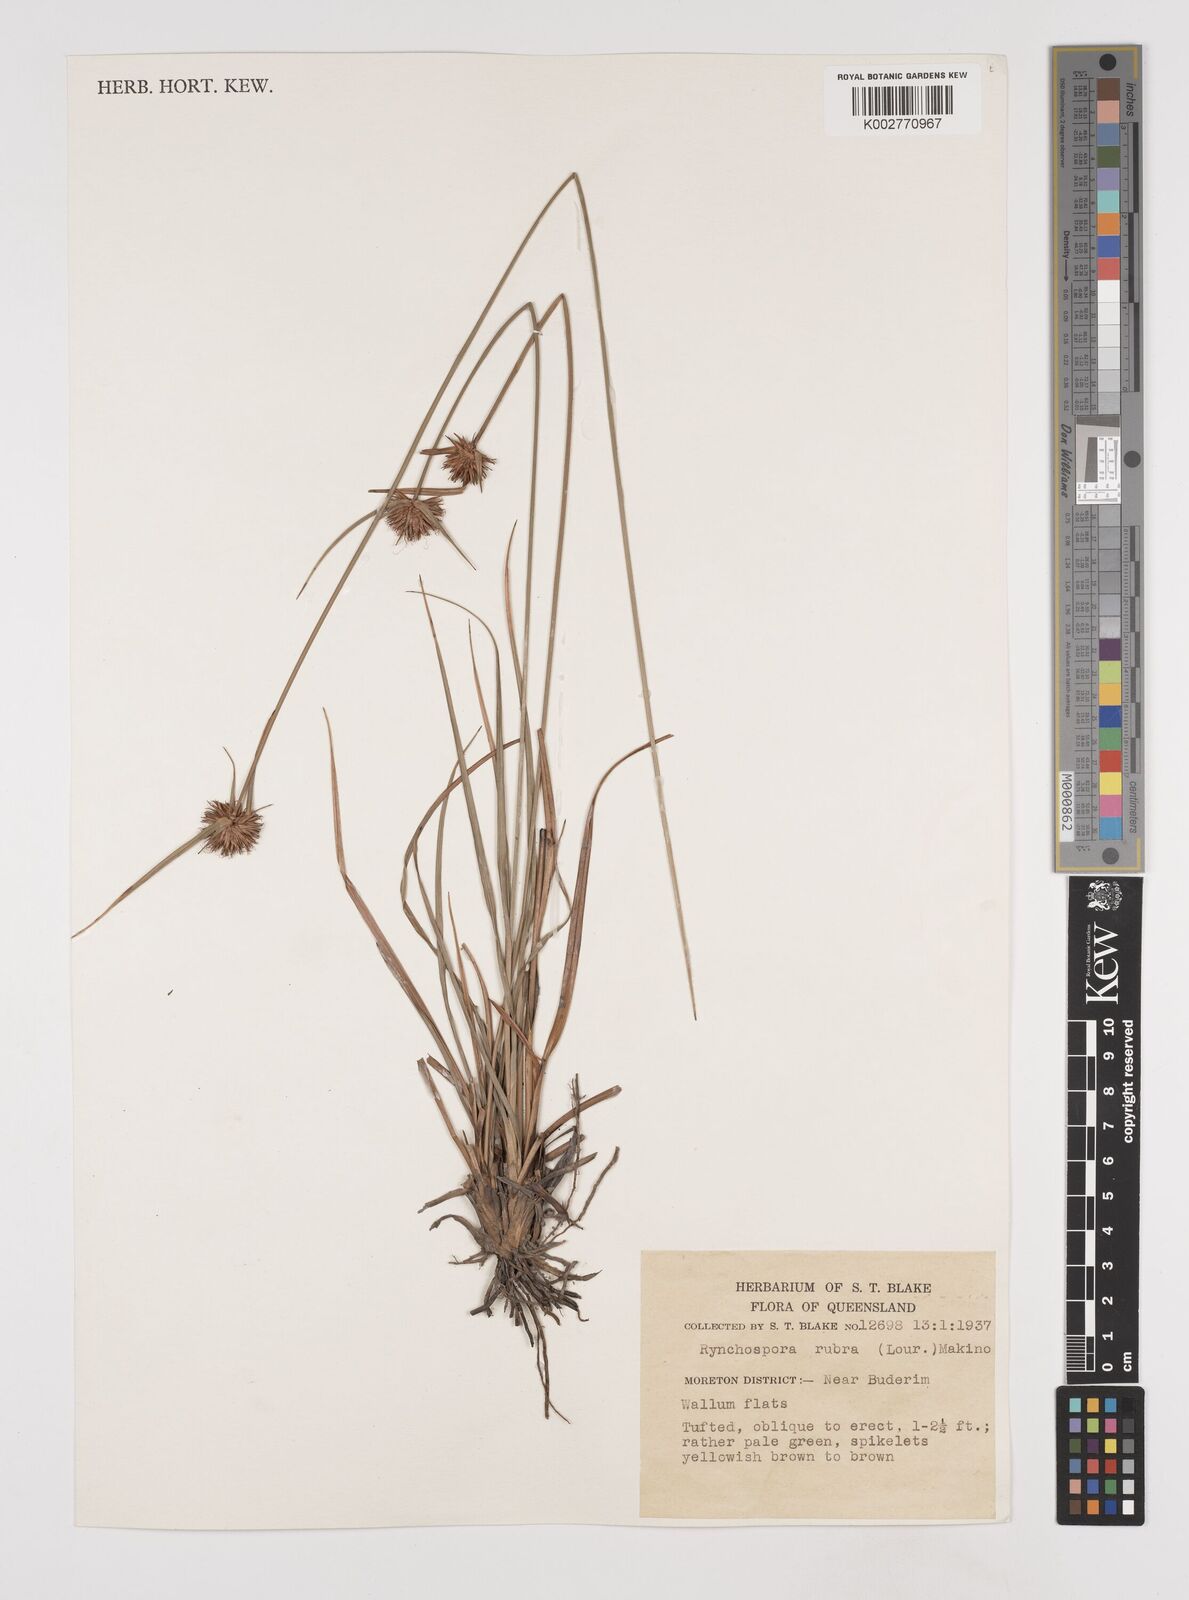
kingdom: Plantae
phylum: Tracheophyta
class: Liliopsida
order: Poales
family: Cyperaceae
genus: Rhynchospora
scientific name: Rhynchospora rubra
